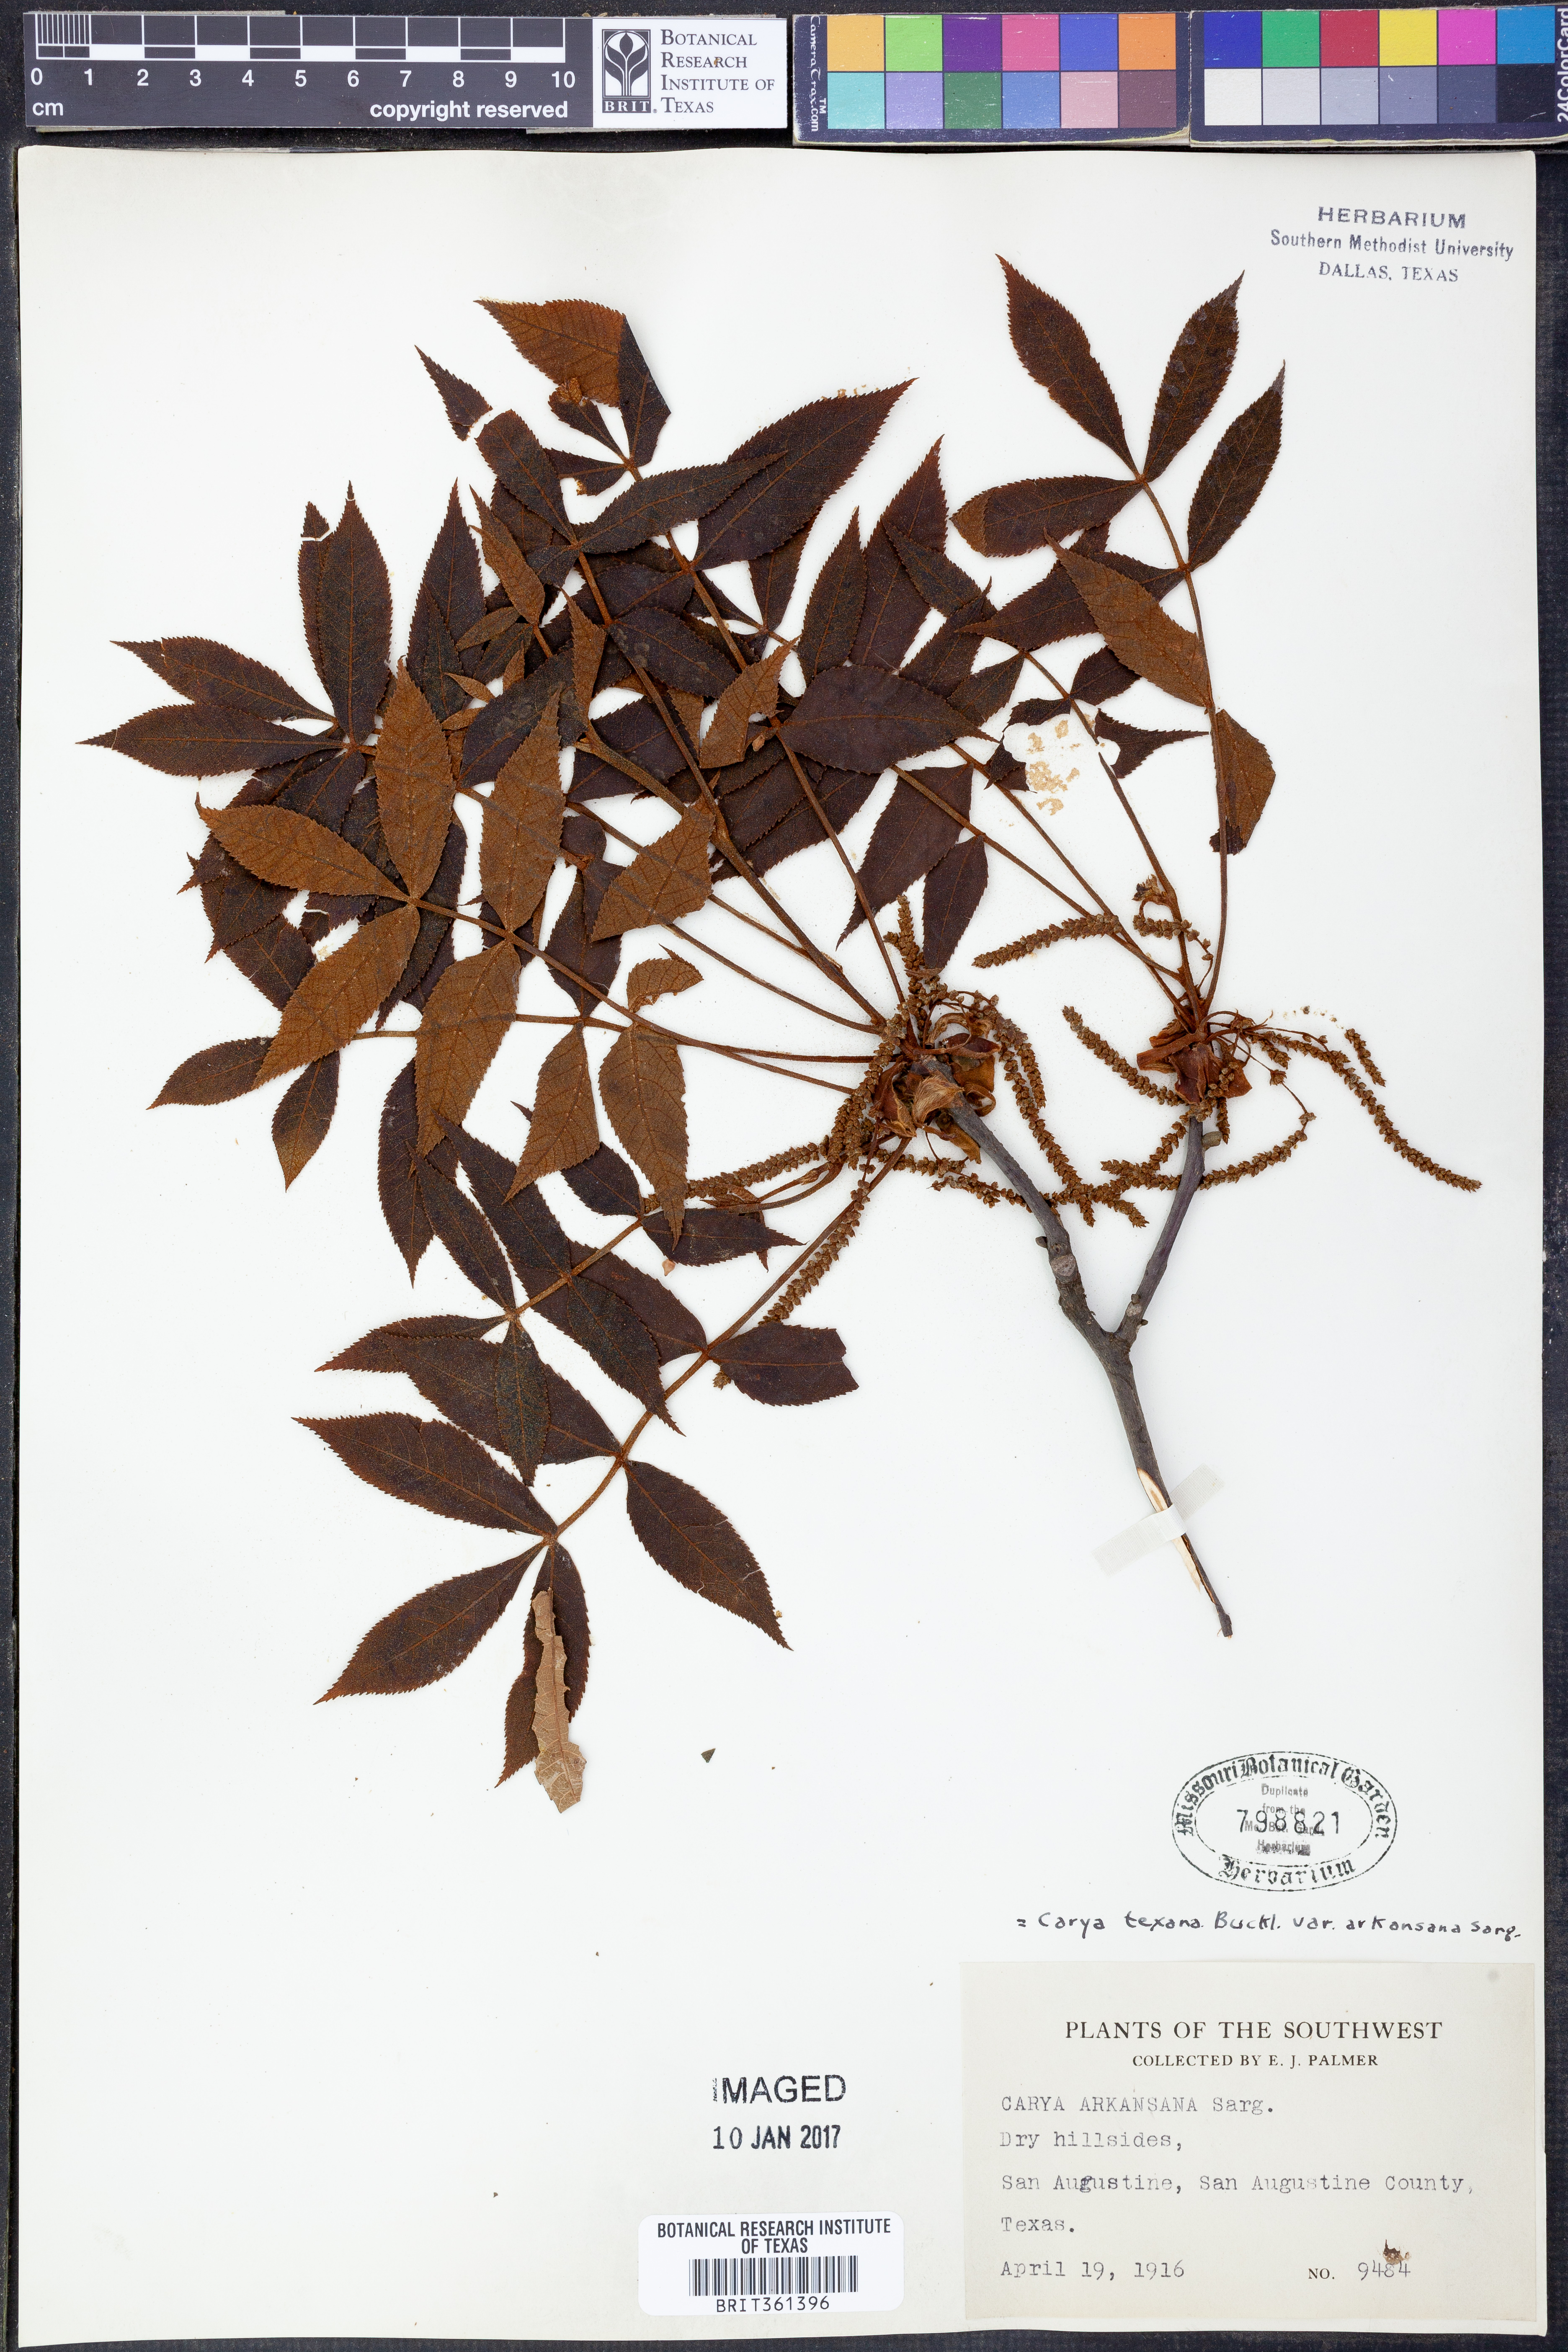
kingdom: Plantae
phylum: Tracheophyta
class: Magnoliopsida
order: Fagales
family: Juglandaceae
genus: Carya
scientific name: Carya texana
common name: Black hickory
